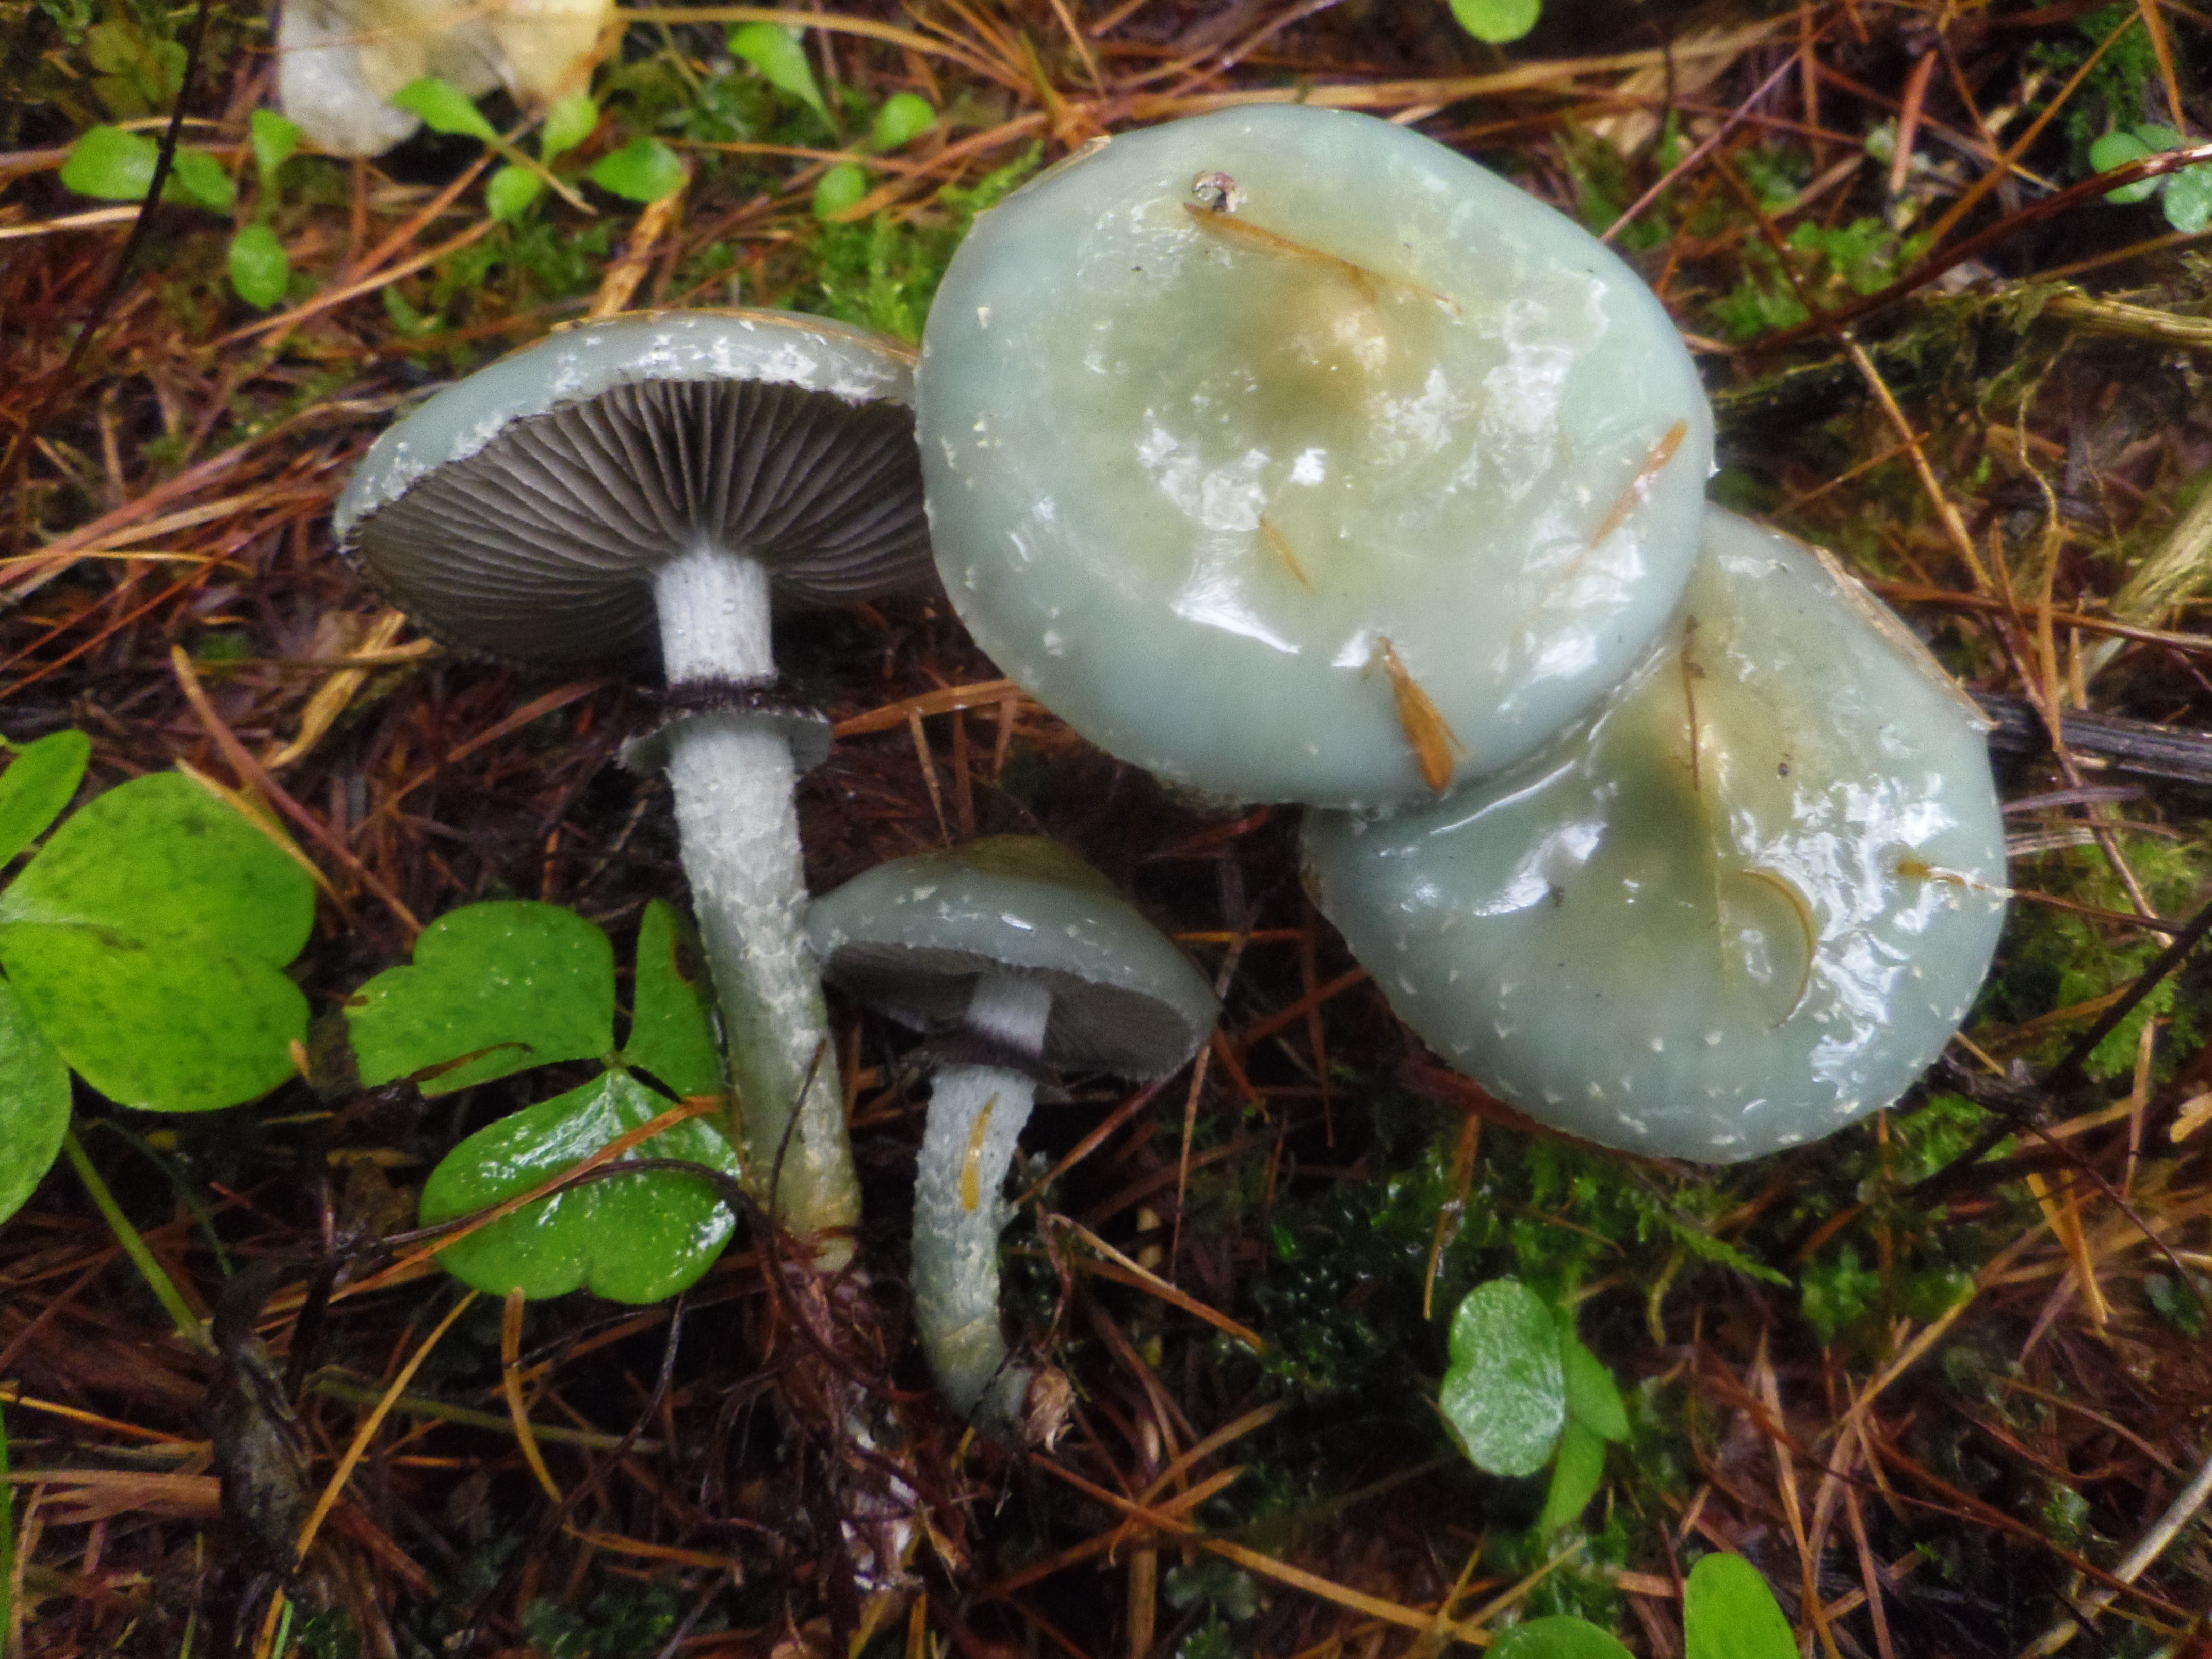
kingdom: Fungi
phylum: Basidiomycota
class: Agaricomycetes
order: Agaricales
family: Strophariaceae
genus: Stropharia
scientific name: Stropharia aeruginosa
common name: Verdigris roundhead
